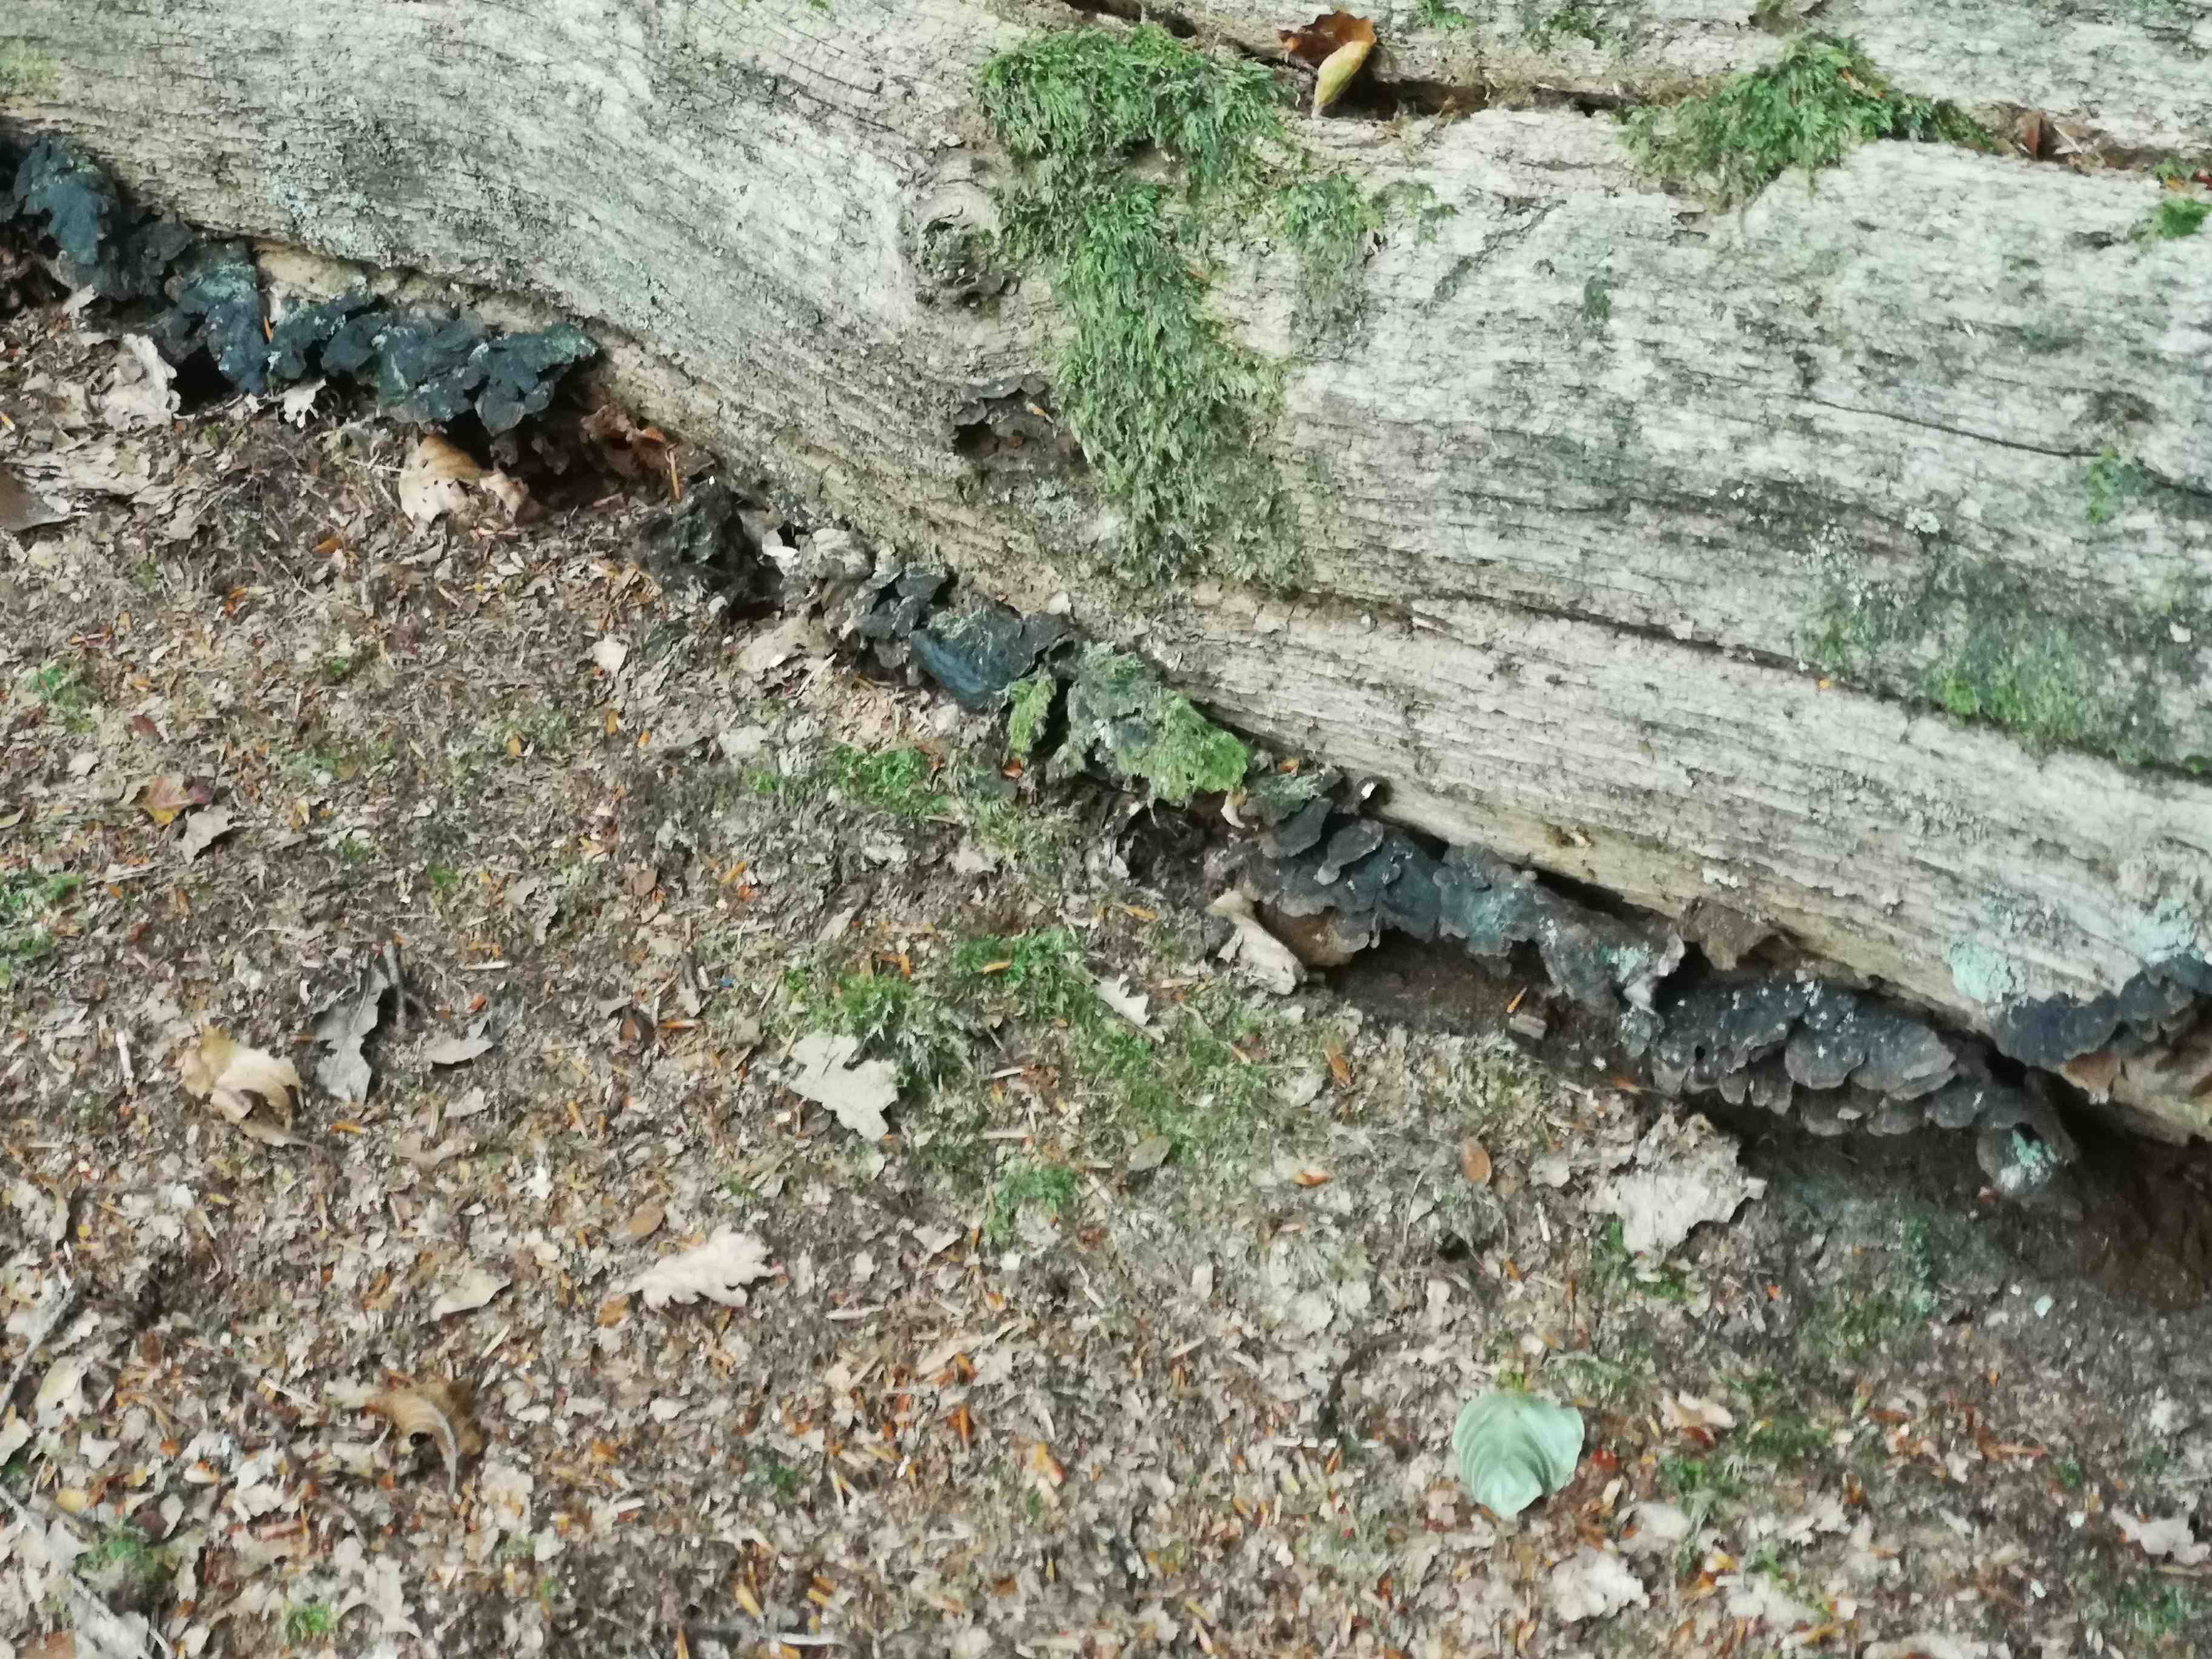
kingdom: Fungi
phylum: Basidiomycota
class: Agaricomycetes
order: Hymenochaetales
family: Hymenochaetaceae
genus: Hymenochaete
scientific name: Hymenochaete rubiginosa
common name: stiv ruslædersvamp
